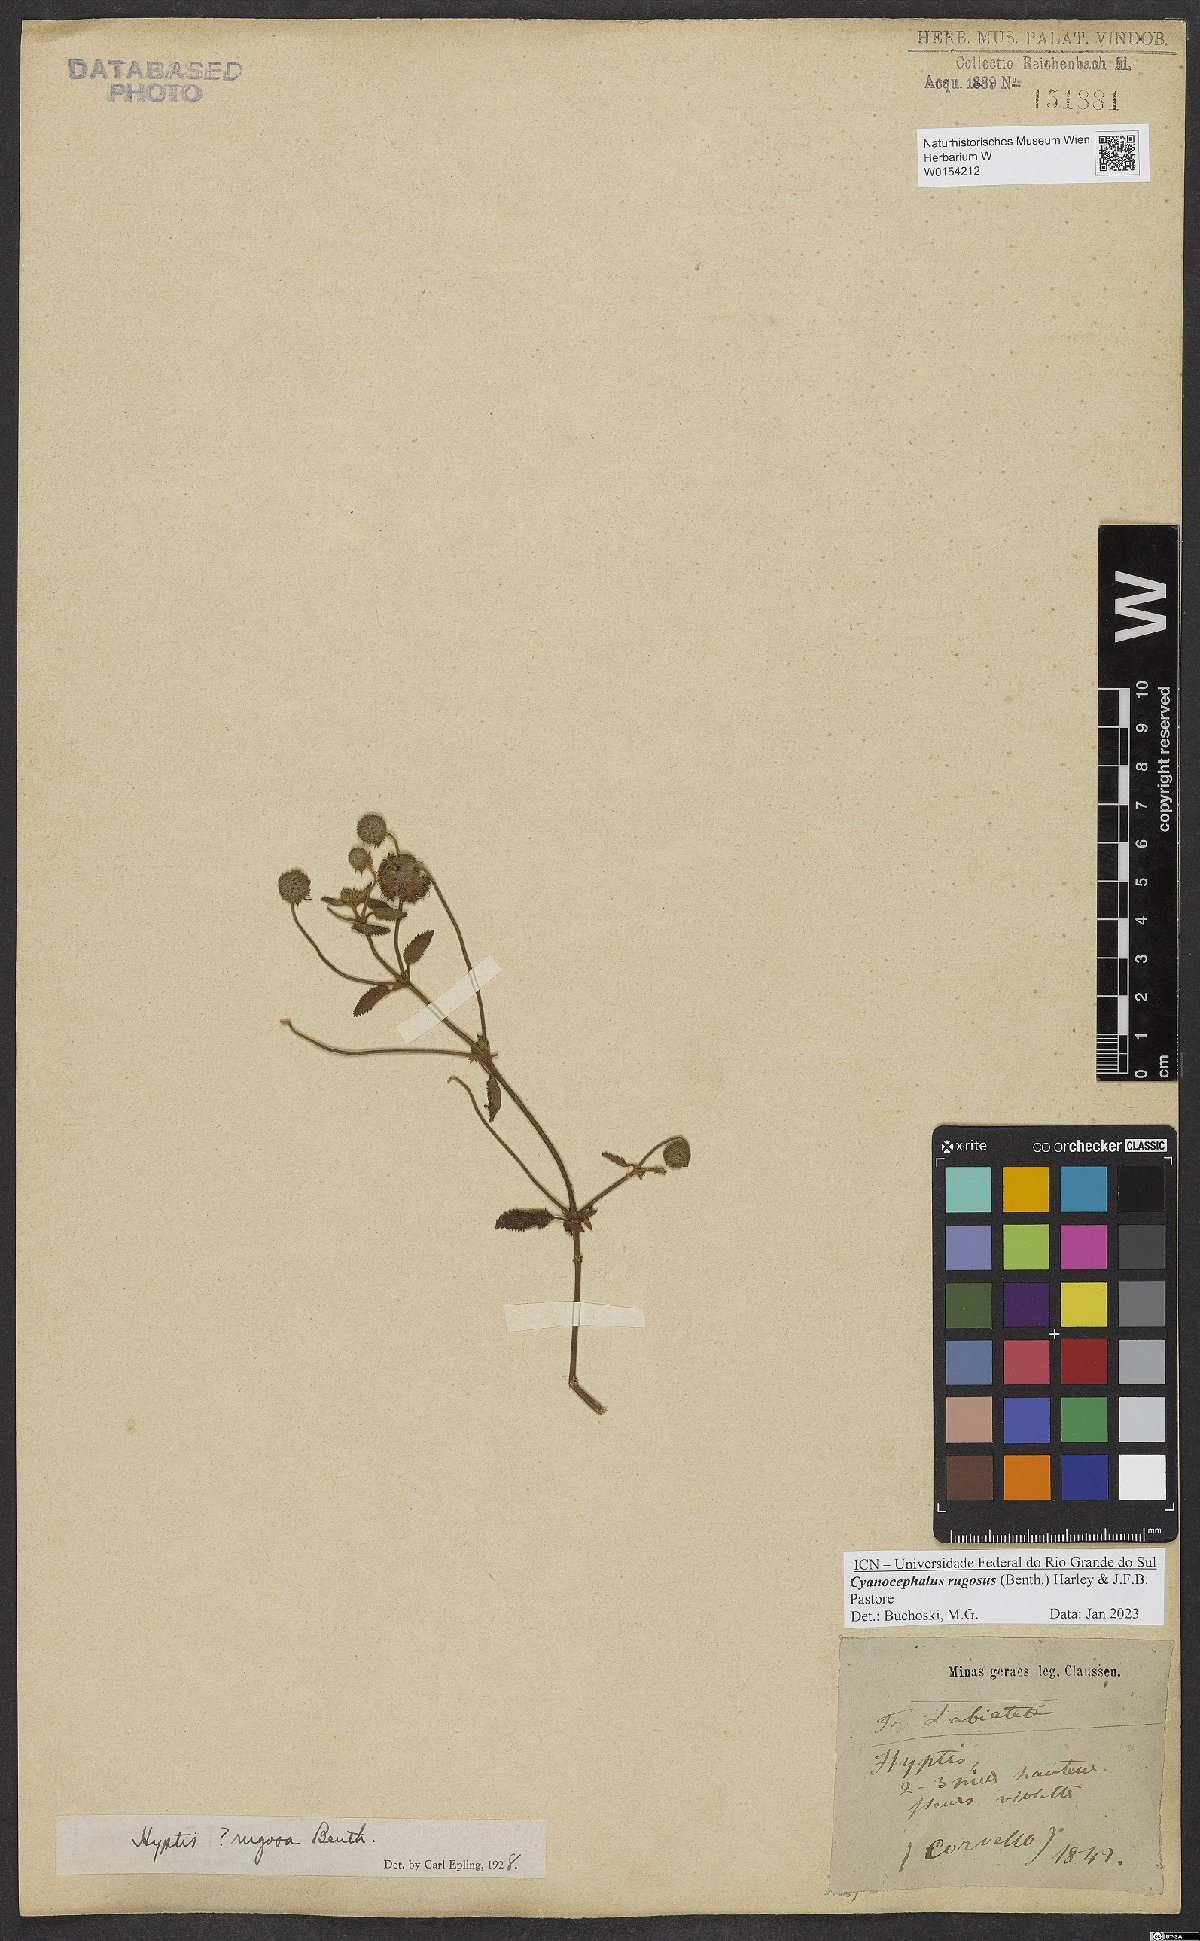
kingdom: Plantae
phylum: Tracheophyta
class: Magnoliopsida
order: Lamiales
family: Lamiaceae
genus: Cyanocephalus
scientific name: Cyanocephalus rugosus
